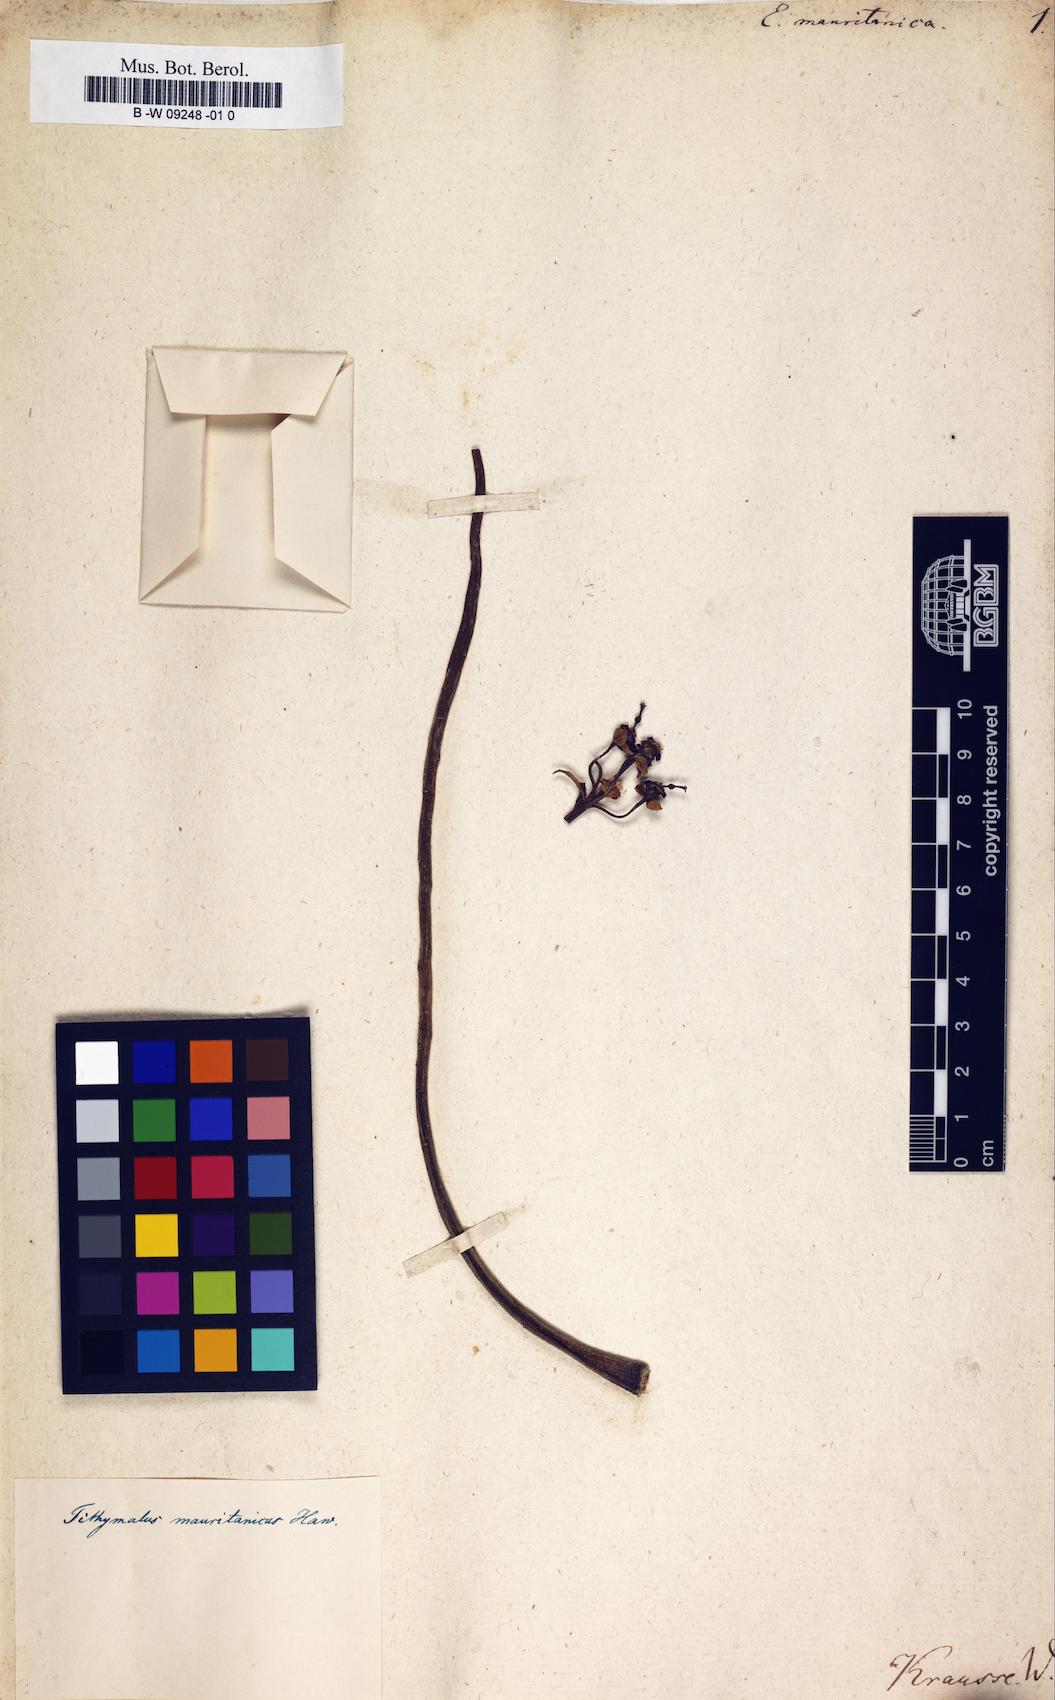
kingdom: Plantae
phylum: Tracheophyta
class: Magnoliopsida
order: Malpighiales
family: Euphorbiaceae
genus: Euphorbia
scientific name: Euphorbia mauritanica
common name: Jackal's-food
